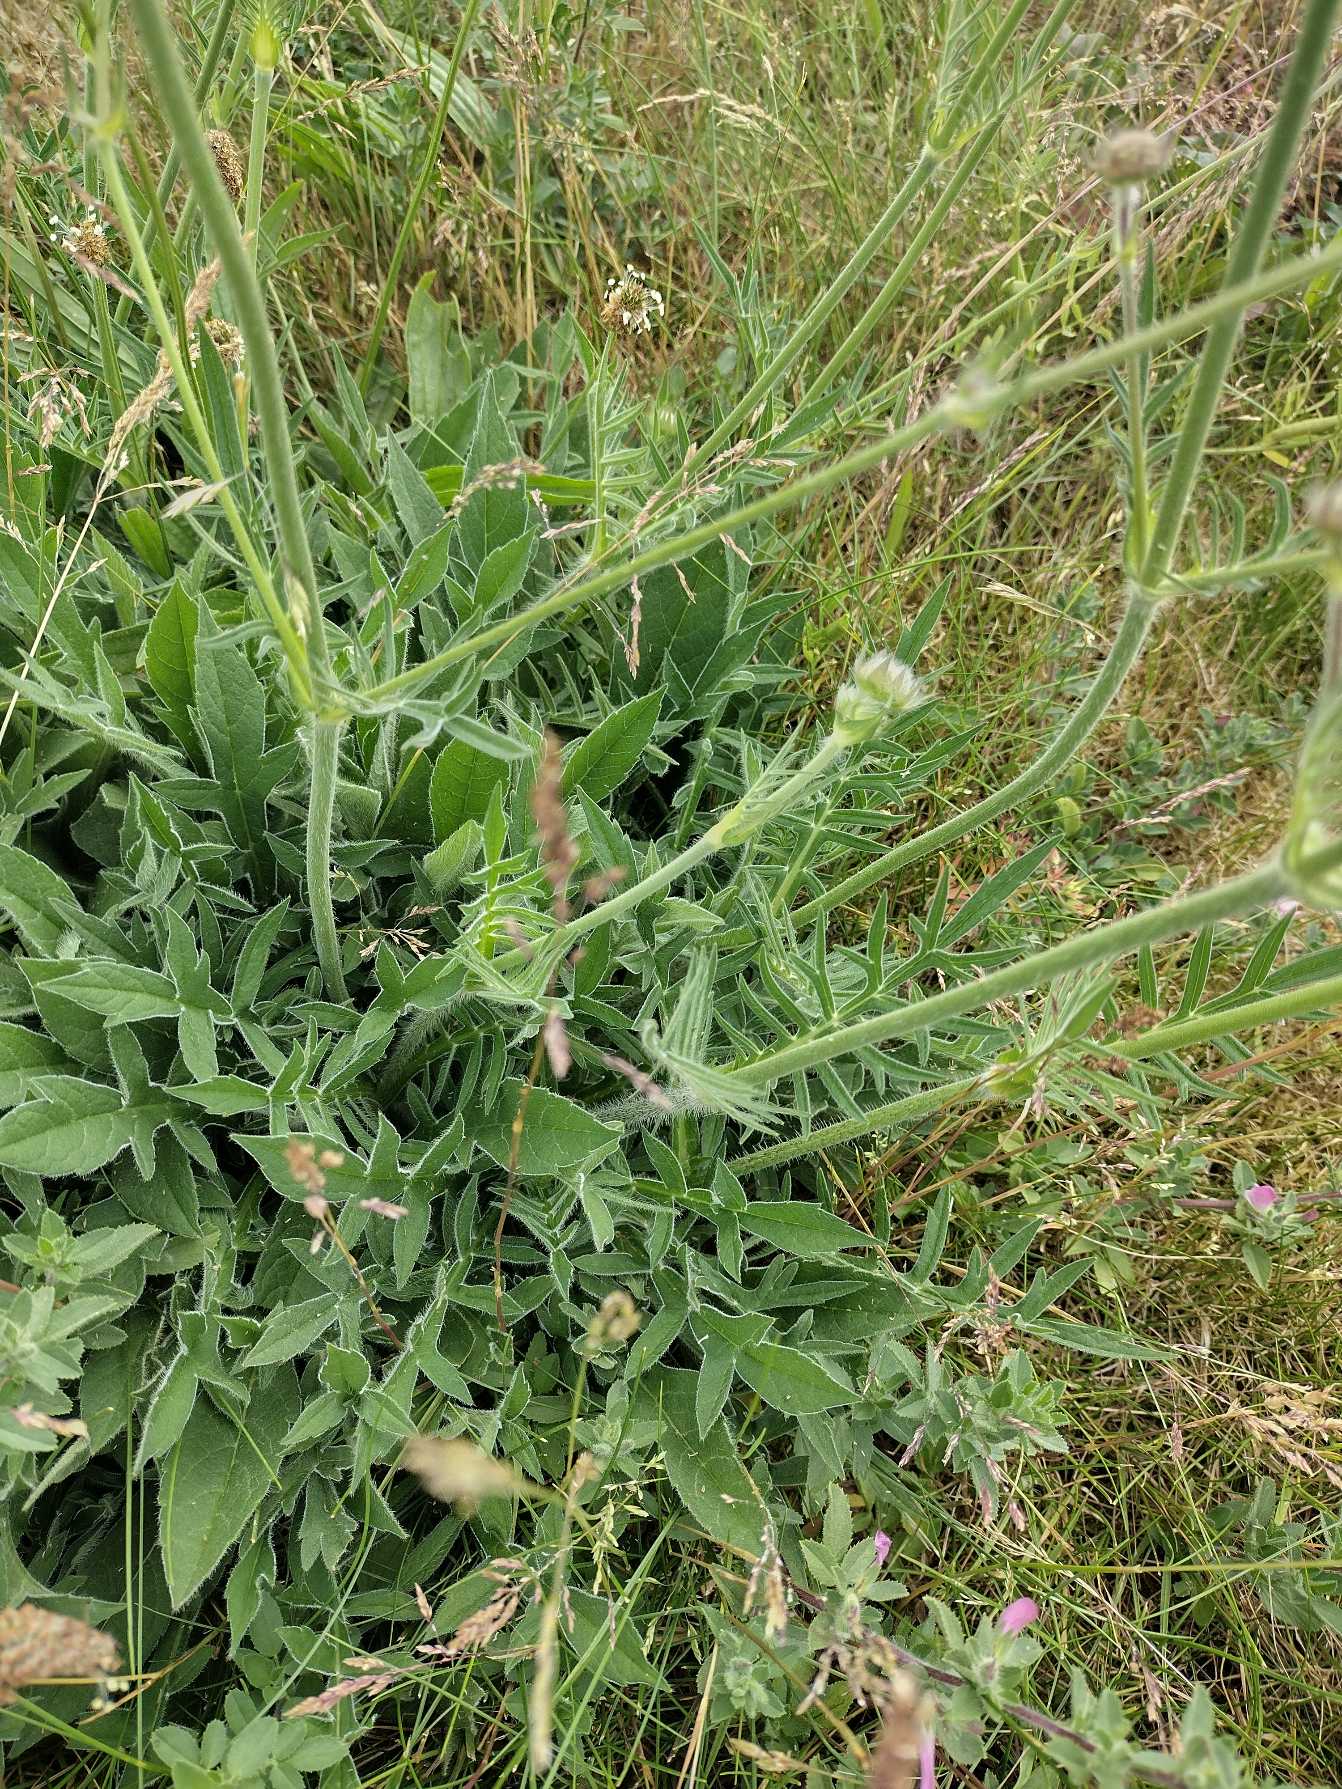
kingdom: Plantae
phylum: Tracheophyta
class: Magnoliopsida
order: Dipsacales
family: Caprifoliaceae
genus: Knautia
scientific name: Knautia arvensis
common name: Blåhat
